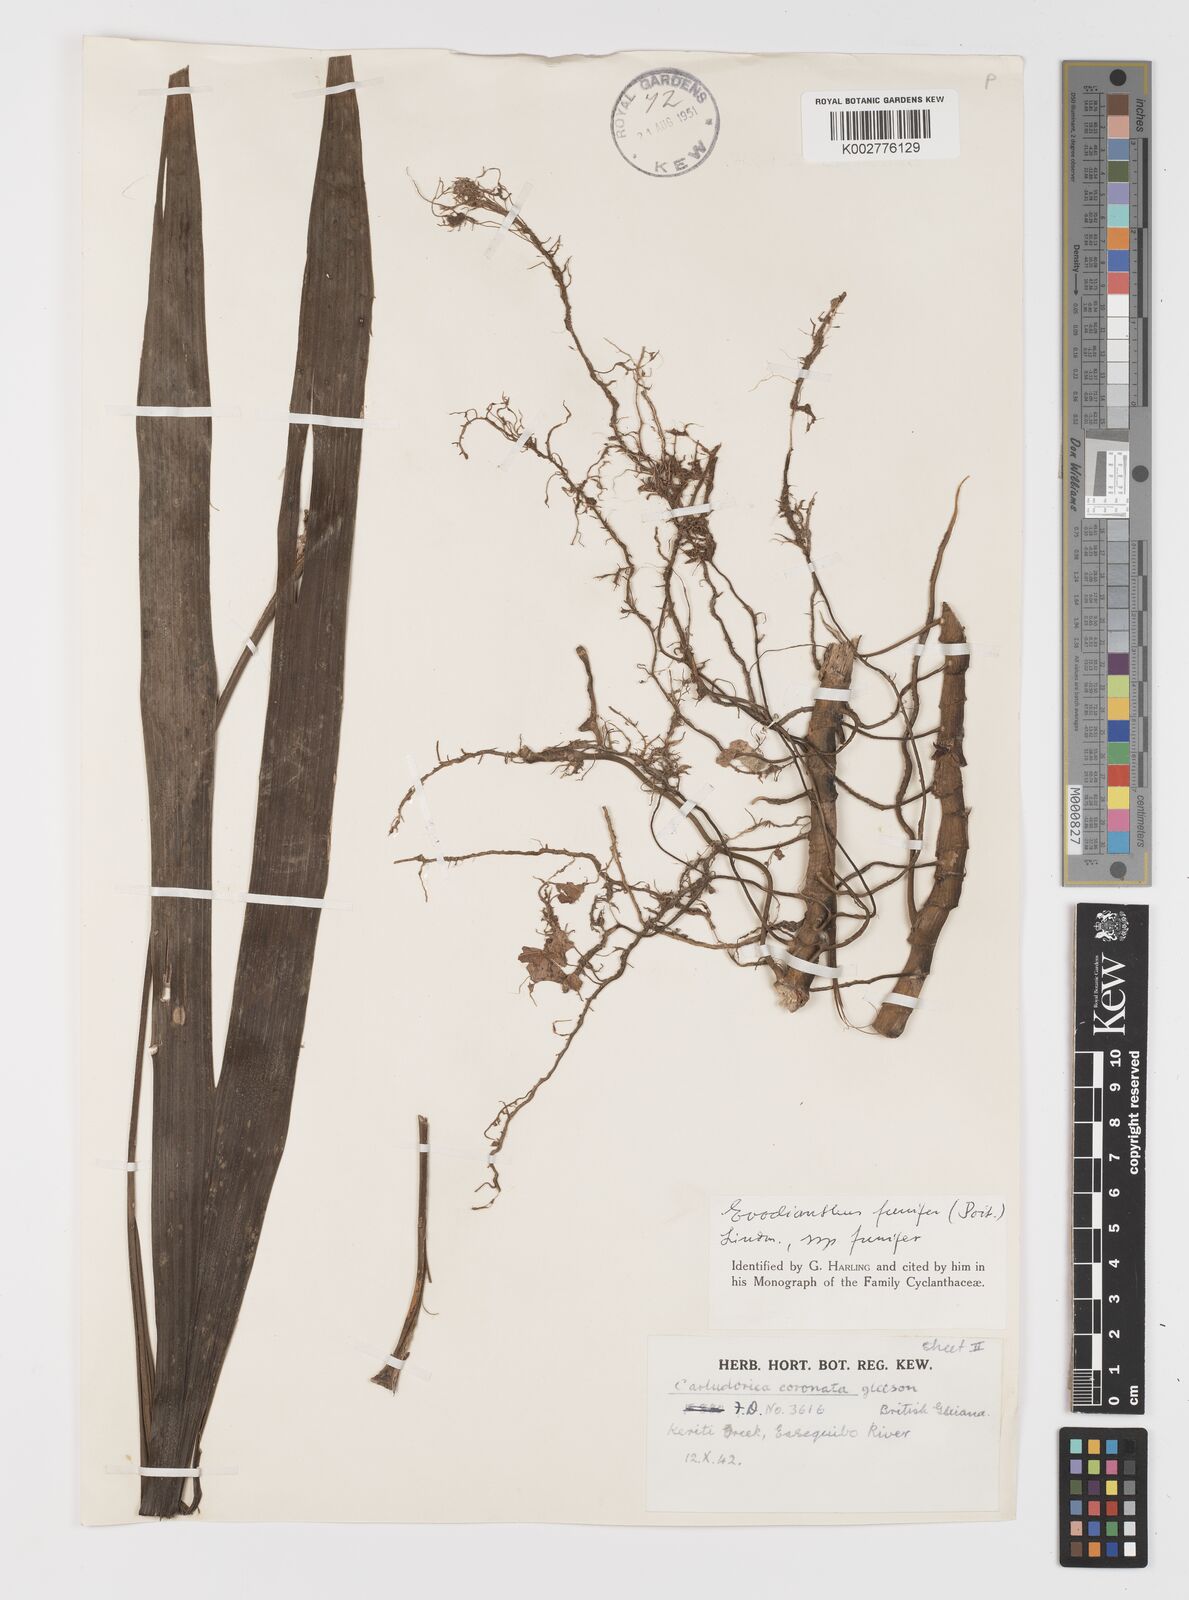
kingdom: Plantae
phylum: Tracheophyta
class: Liliopsida
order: Pandanales
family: Cyclanthaceae
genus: Evodianthus
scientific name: Evodianthus funifer
